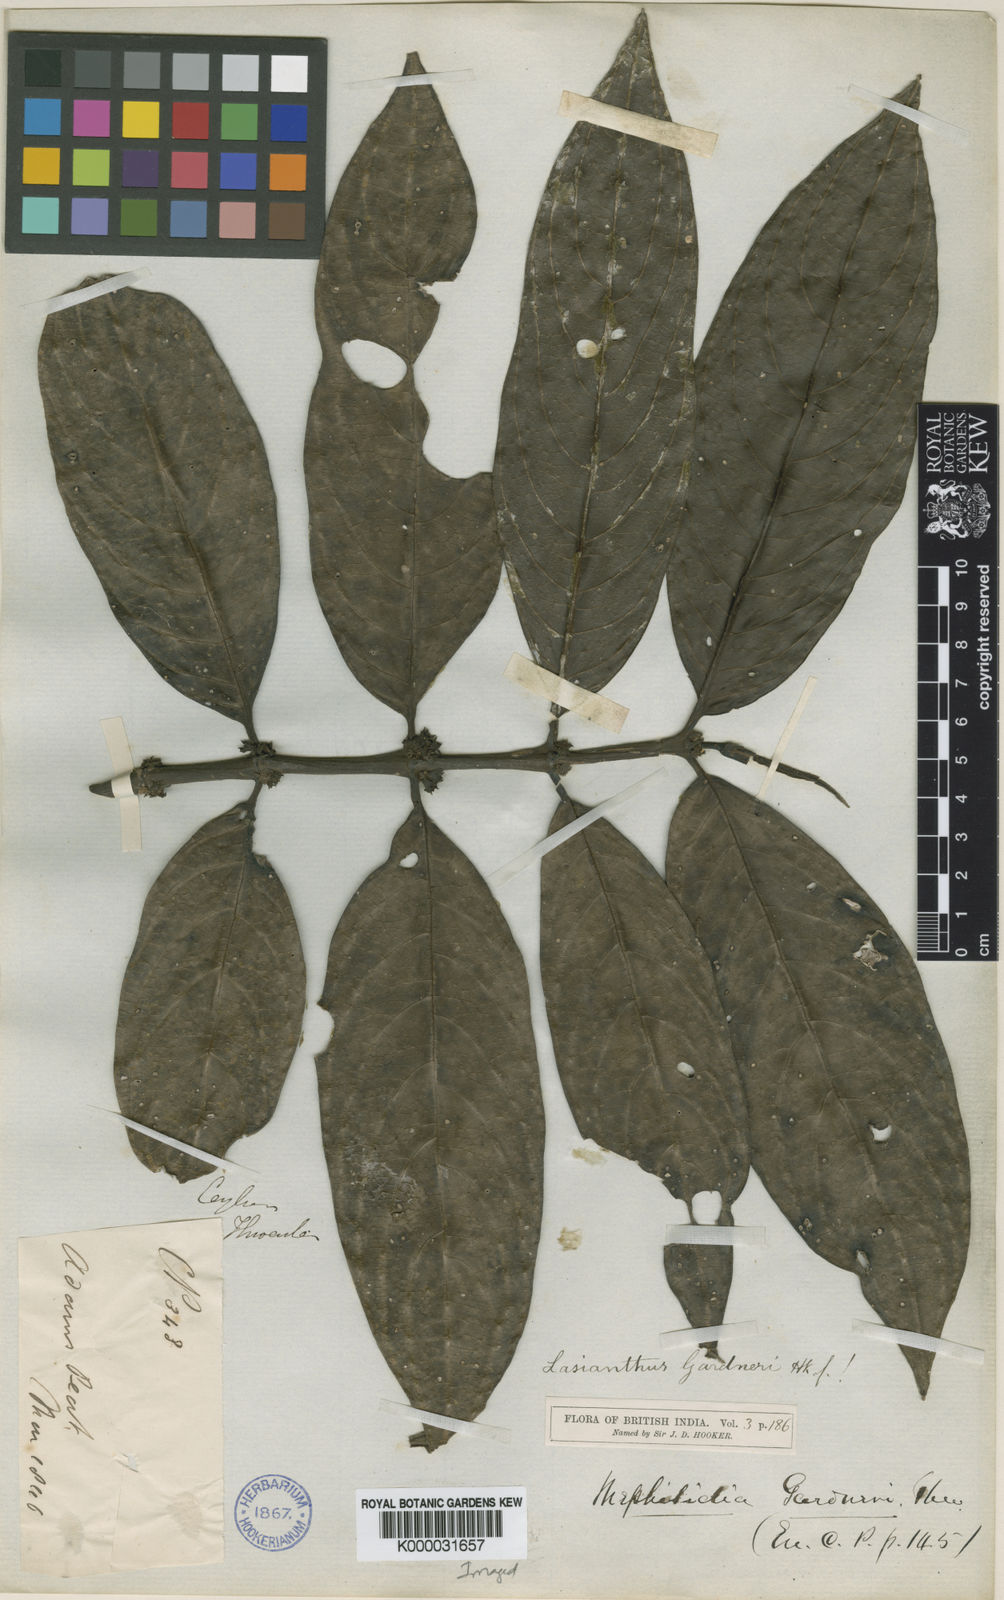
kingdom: Plantae
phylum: Tracheophyta
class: Magnoliopsida
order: Gentianales
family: Rubiaceae
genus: Lasianthus
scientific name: Lasianthus gardneri
